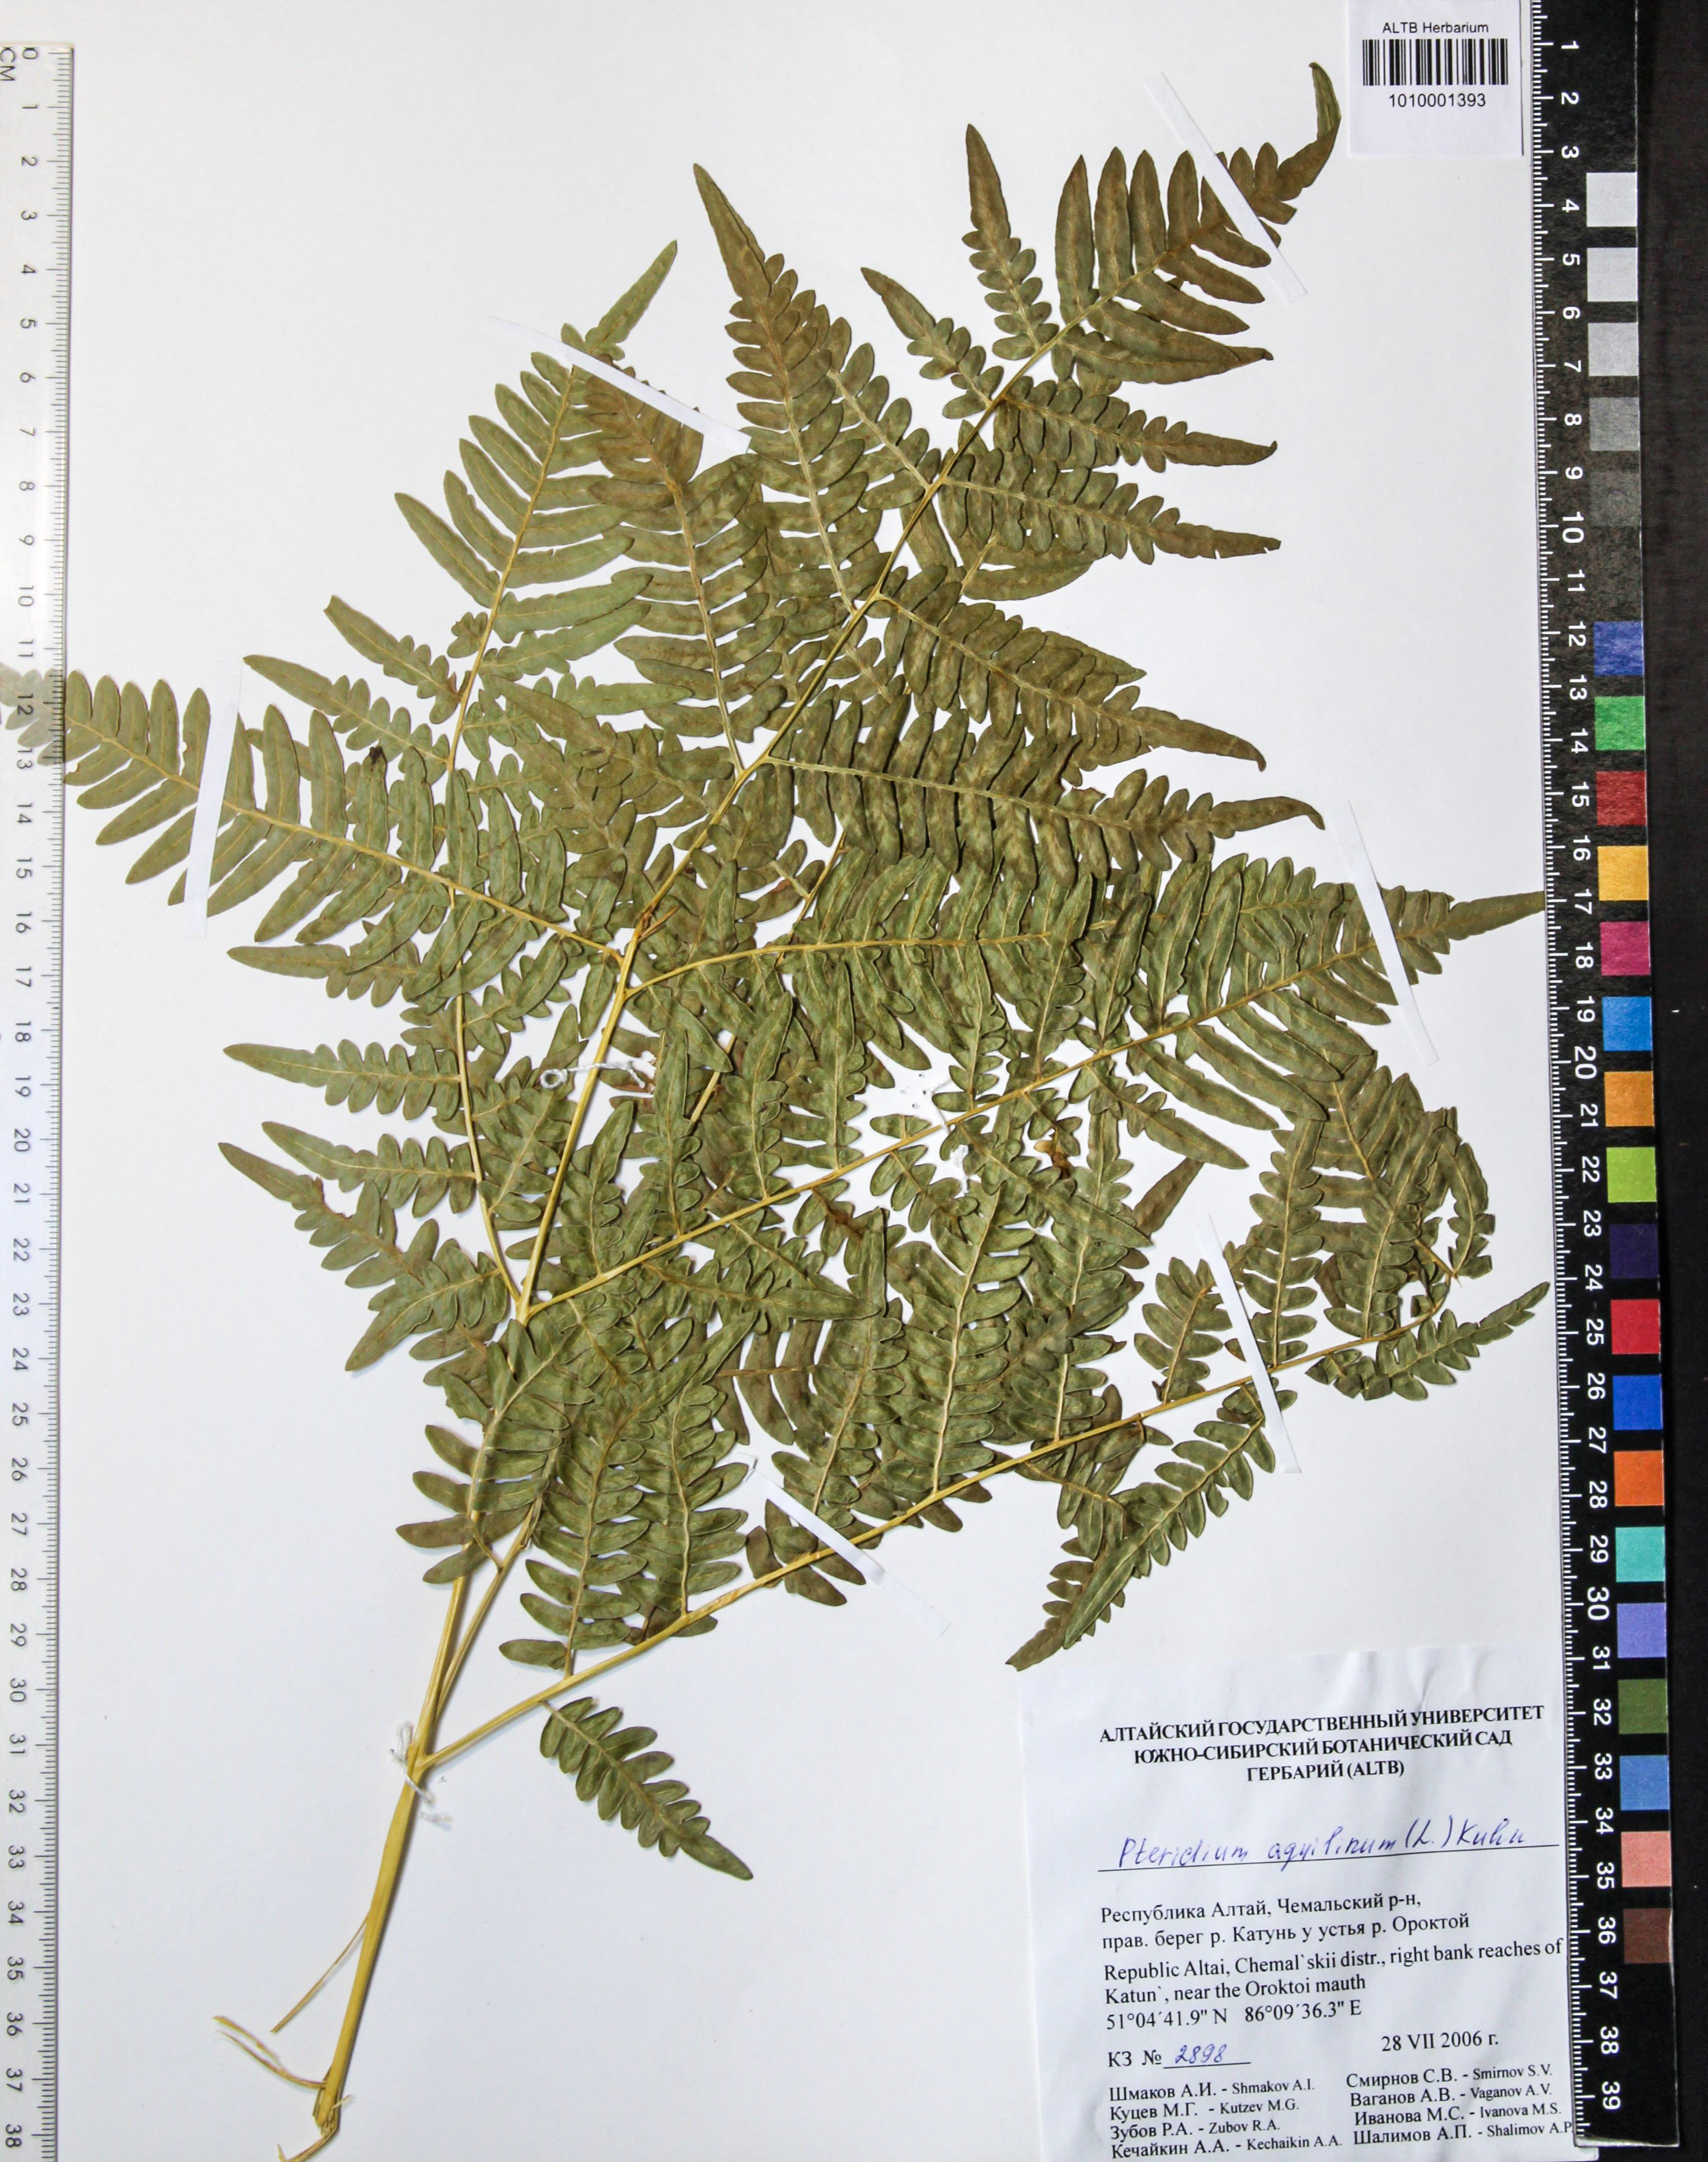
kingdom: Plantae
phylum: Tracheophyta
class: Polypodiopsida
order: Polypodiales
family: Dennstaedtiaceae
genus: Pteridium
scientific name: Pteridium aquilinum
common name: Bracken
